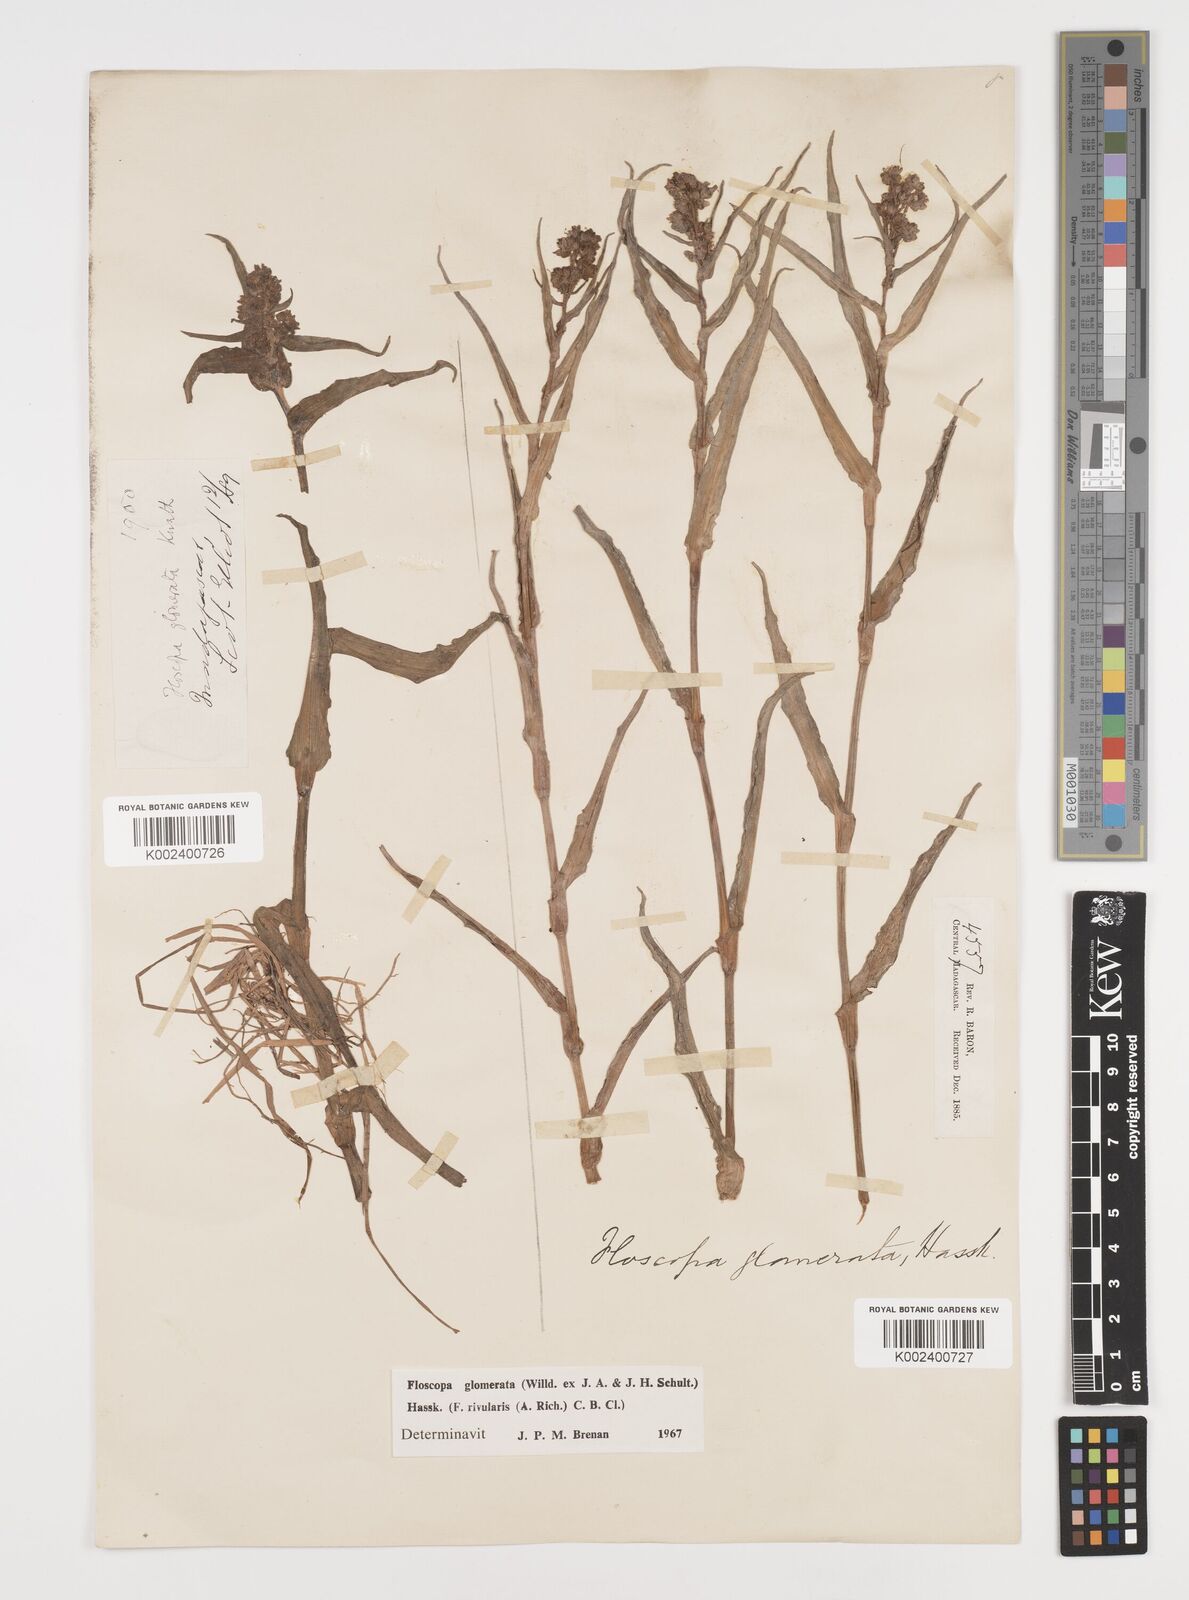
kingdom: Plantae
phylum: Tracheophyta
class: Liliopsida
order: Commelinales
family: Commelinaceae
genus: Floscopa
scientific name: Floscopa glomerata
